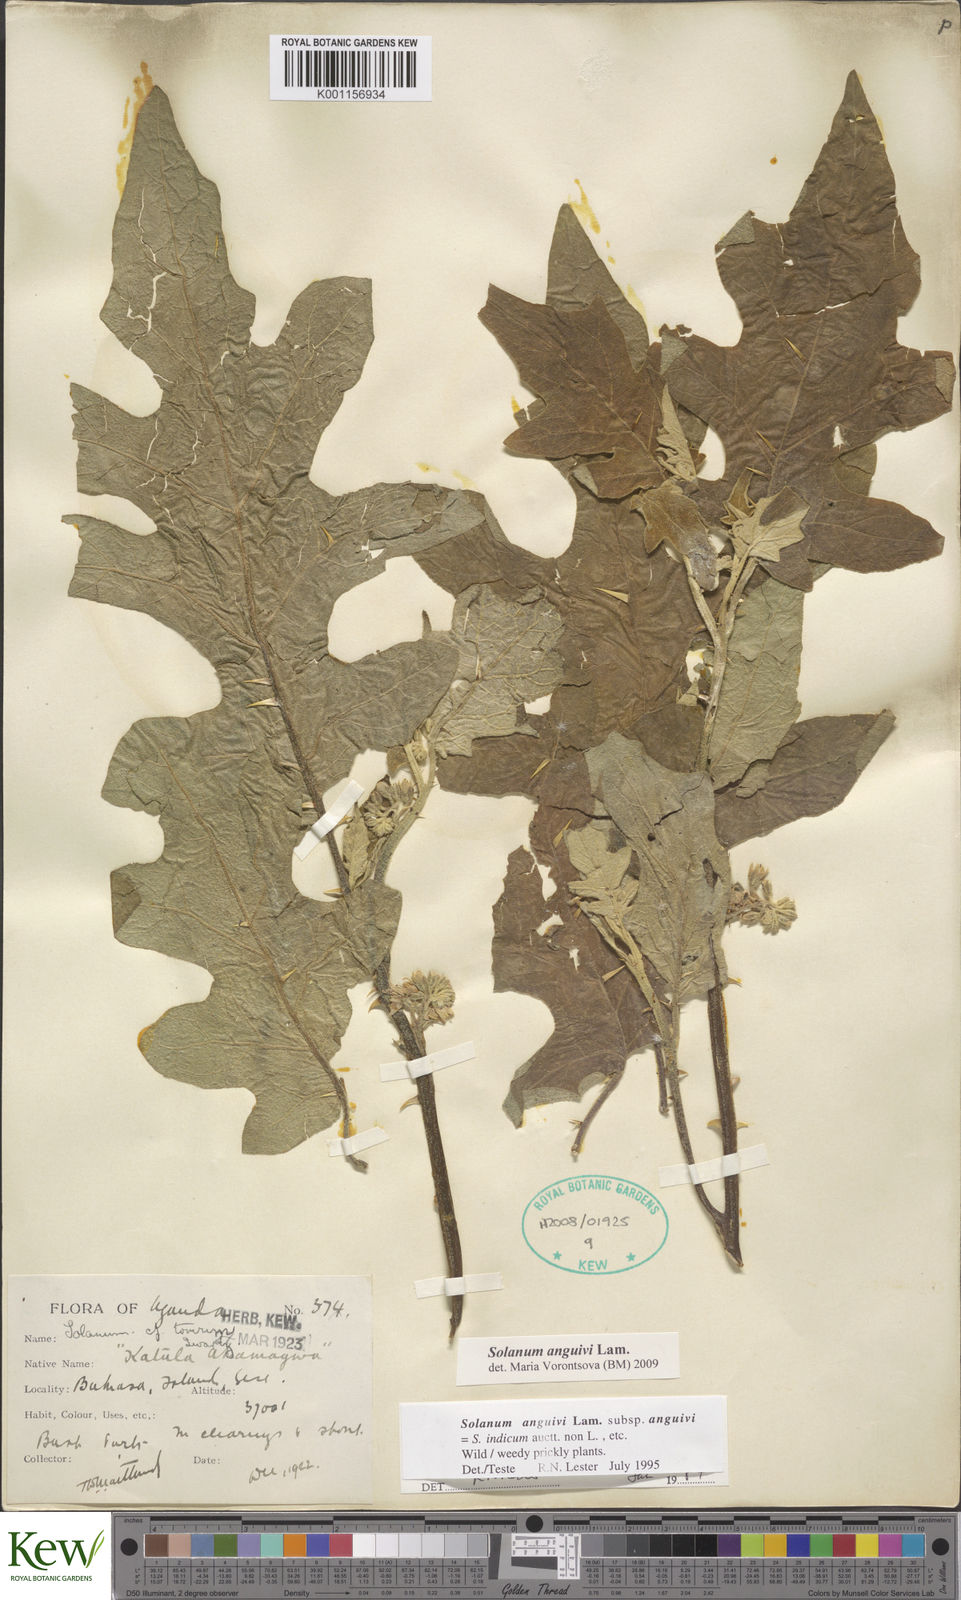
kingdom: Plantae
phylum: Tracheophyta
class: Magnoliopsida
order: Solanales
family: Solanaceae
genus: Solanum
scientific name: Solanum anguivi
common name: Forest bitterberry
